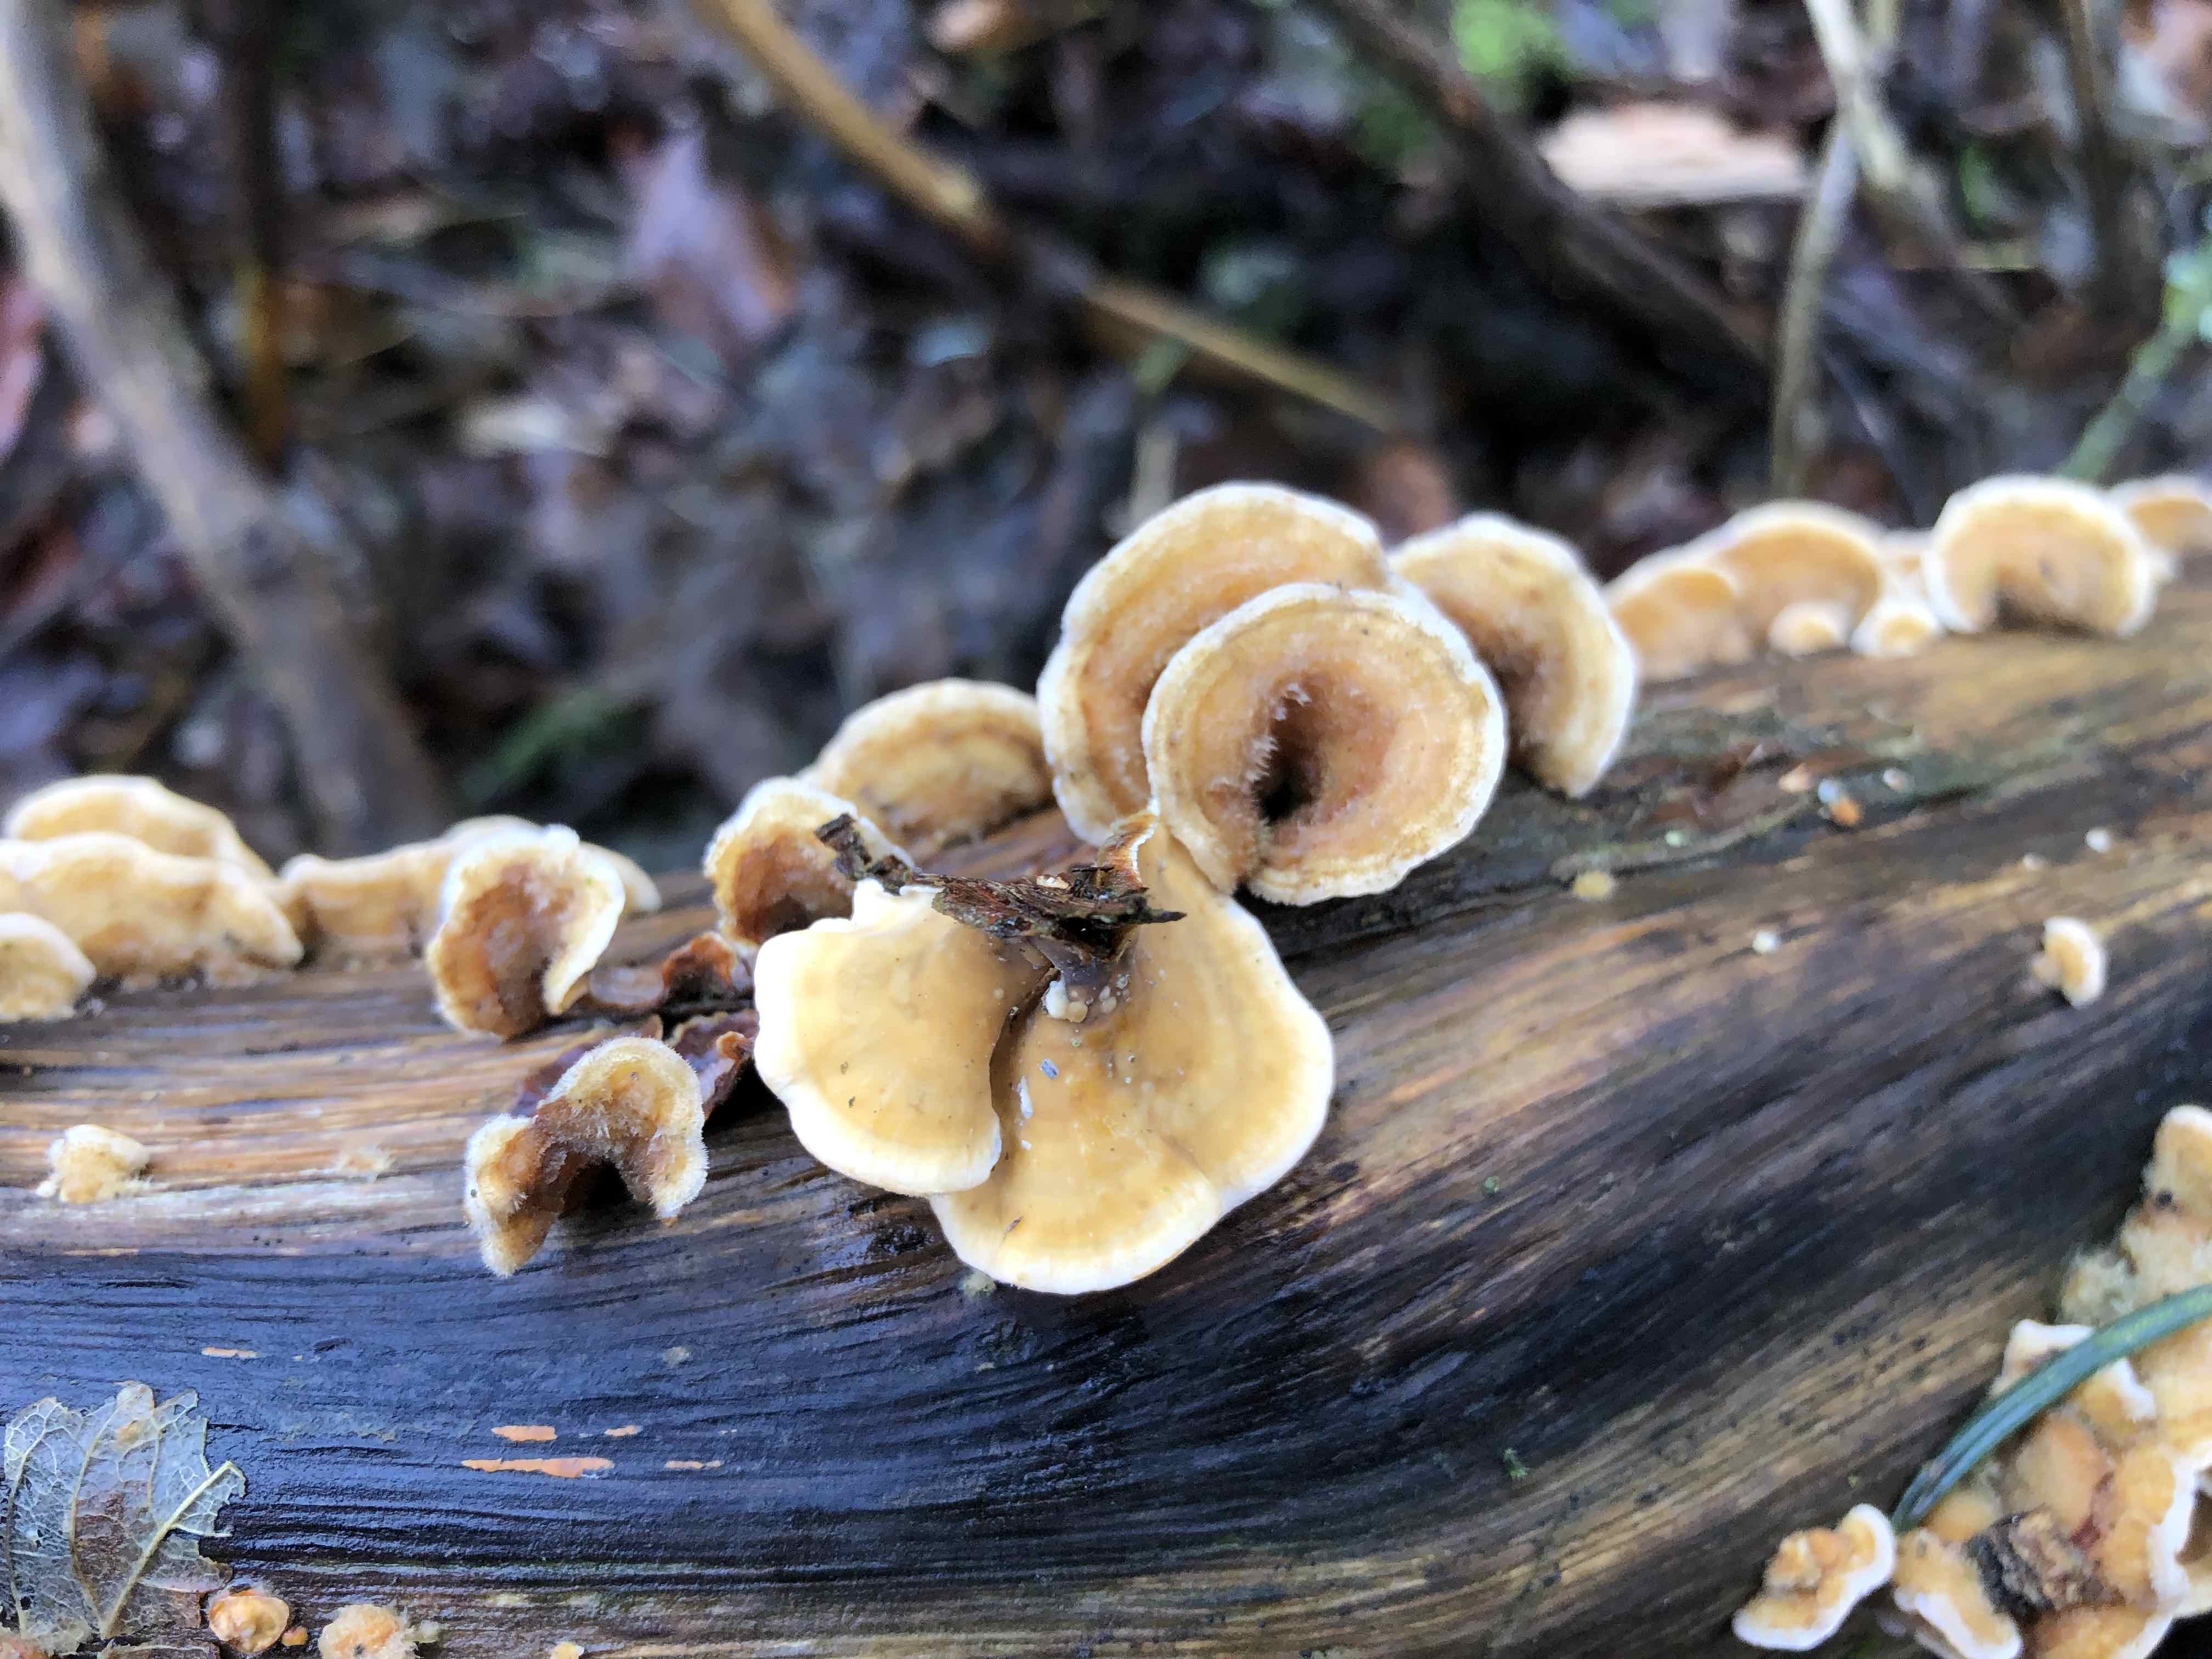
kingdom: Fungi
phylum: Basidiomycota
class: Agaricomycetes
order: Russulales
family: Stereaceae
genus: Stereum
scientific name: Stereum hirsutum
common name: håret lædersvamp
